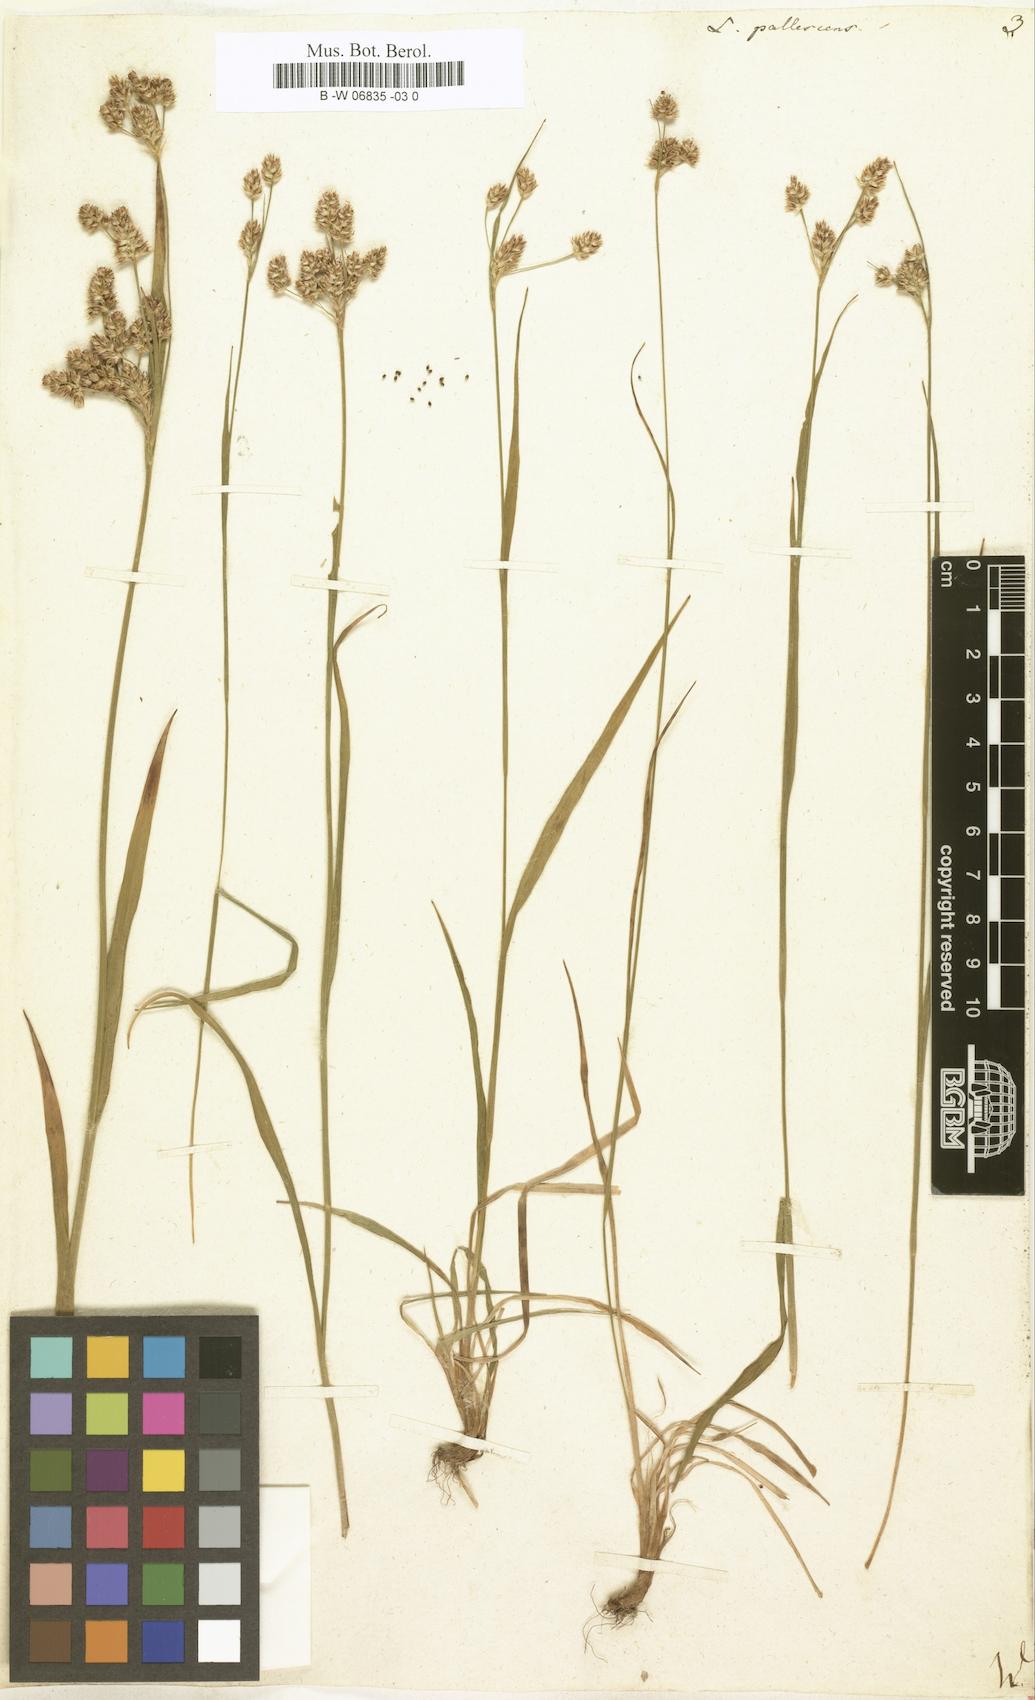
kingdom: Plantae
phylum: Tracheophyta
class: Liliopsida
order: Poales
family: Juncaceae
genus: Luzula
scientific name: Luzula pallescens
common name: Fen wood-rush
